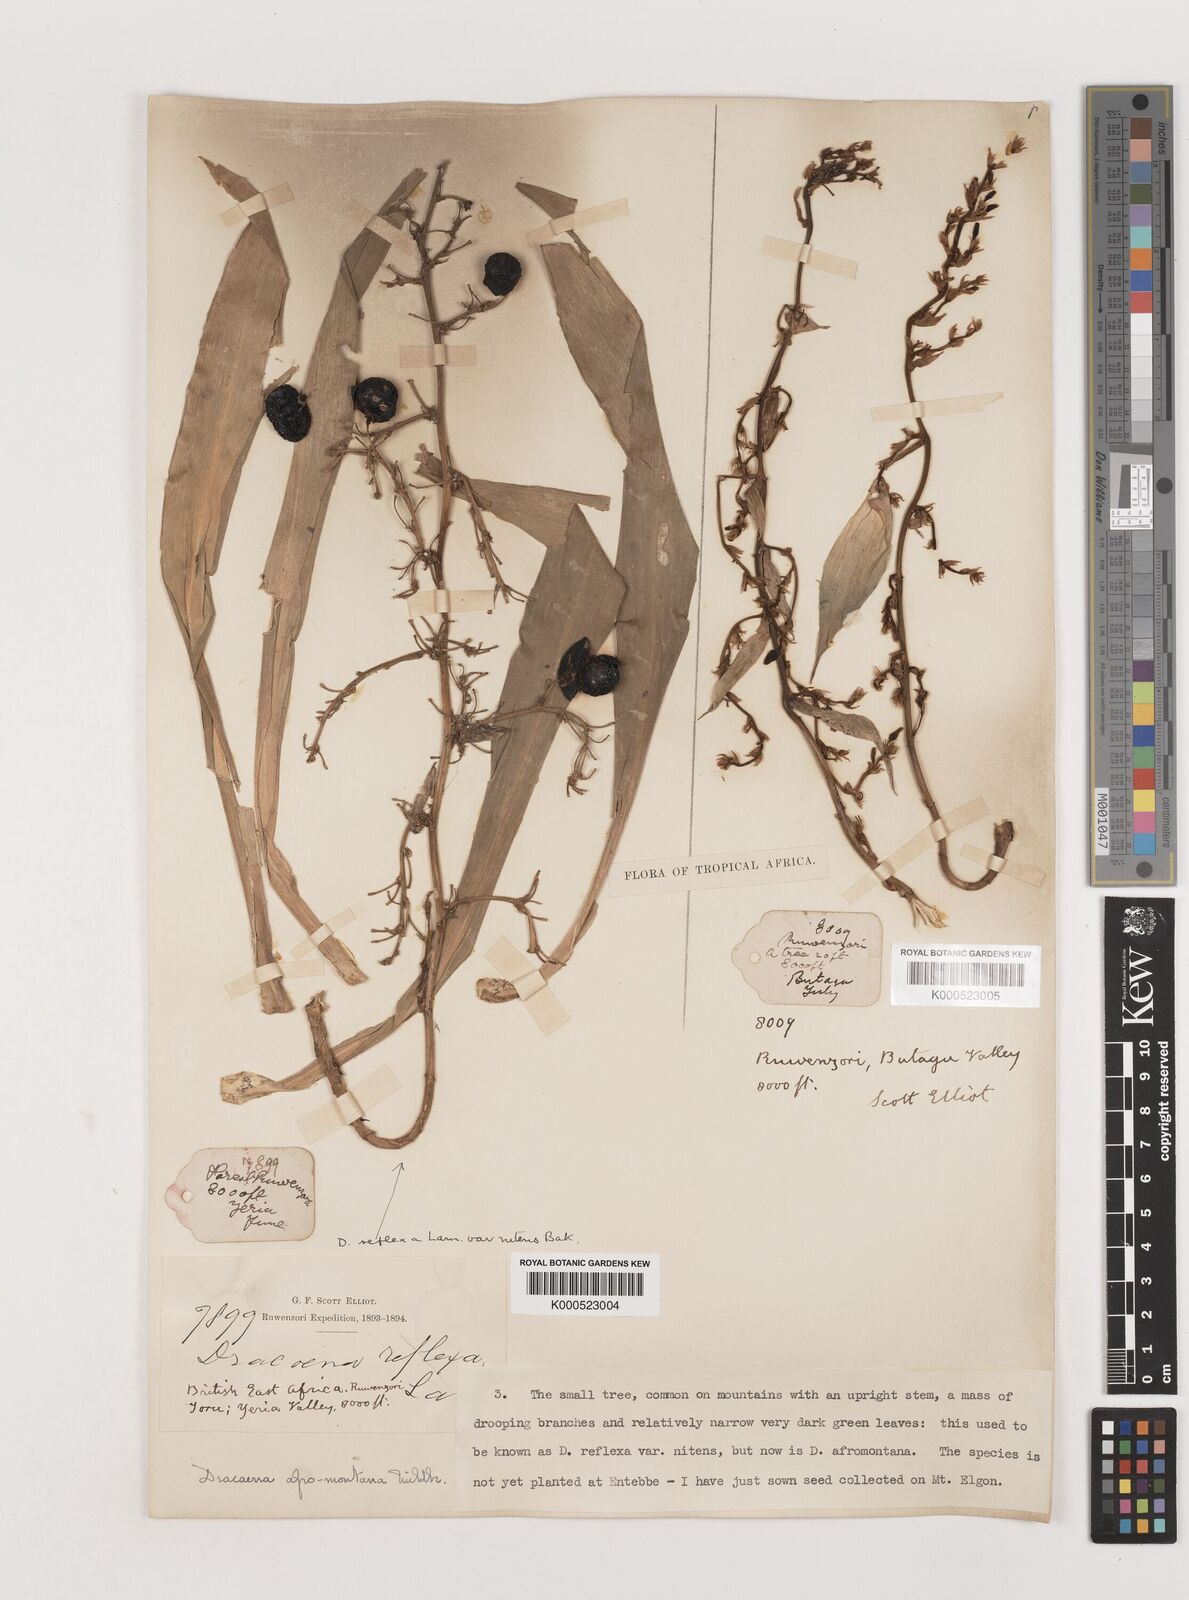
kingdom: Plantae
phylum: Tracheophyta
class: Liliopsida
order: Asparagales
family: Asparagaceae
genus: Dracaena
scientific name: Dracaena afromontana
